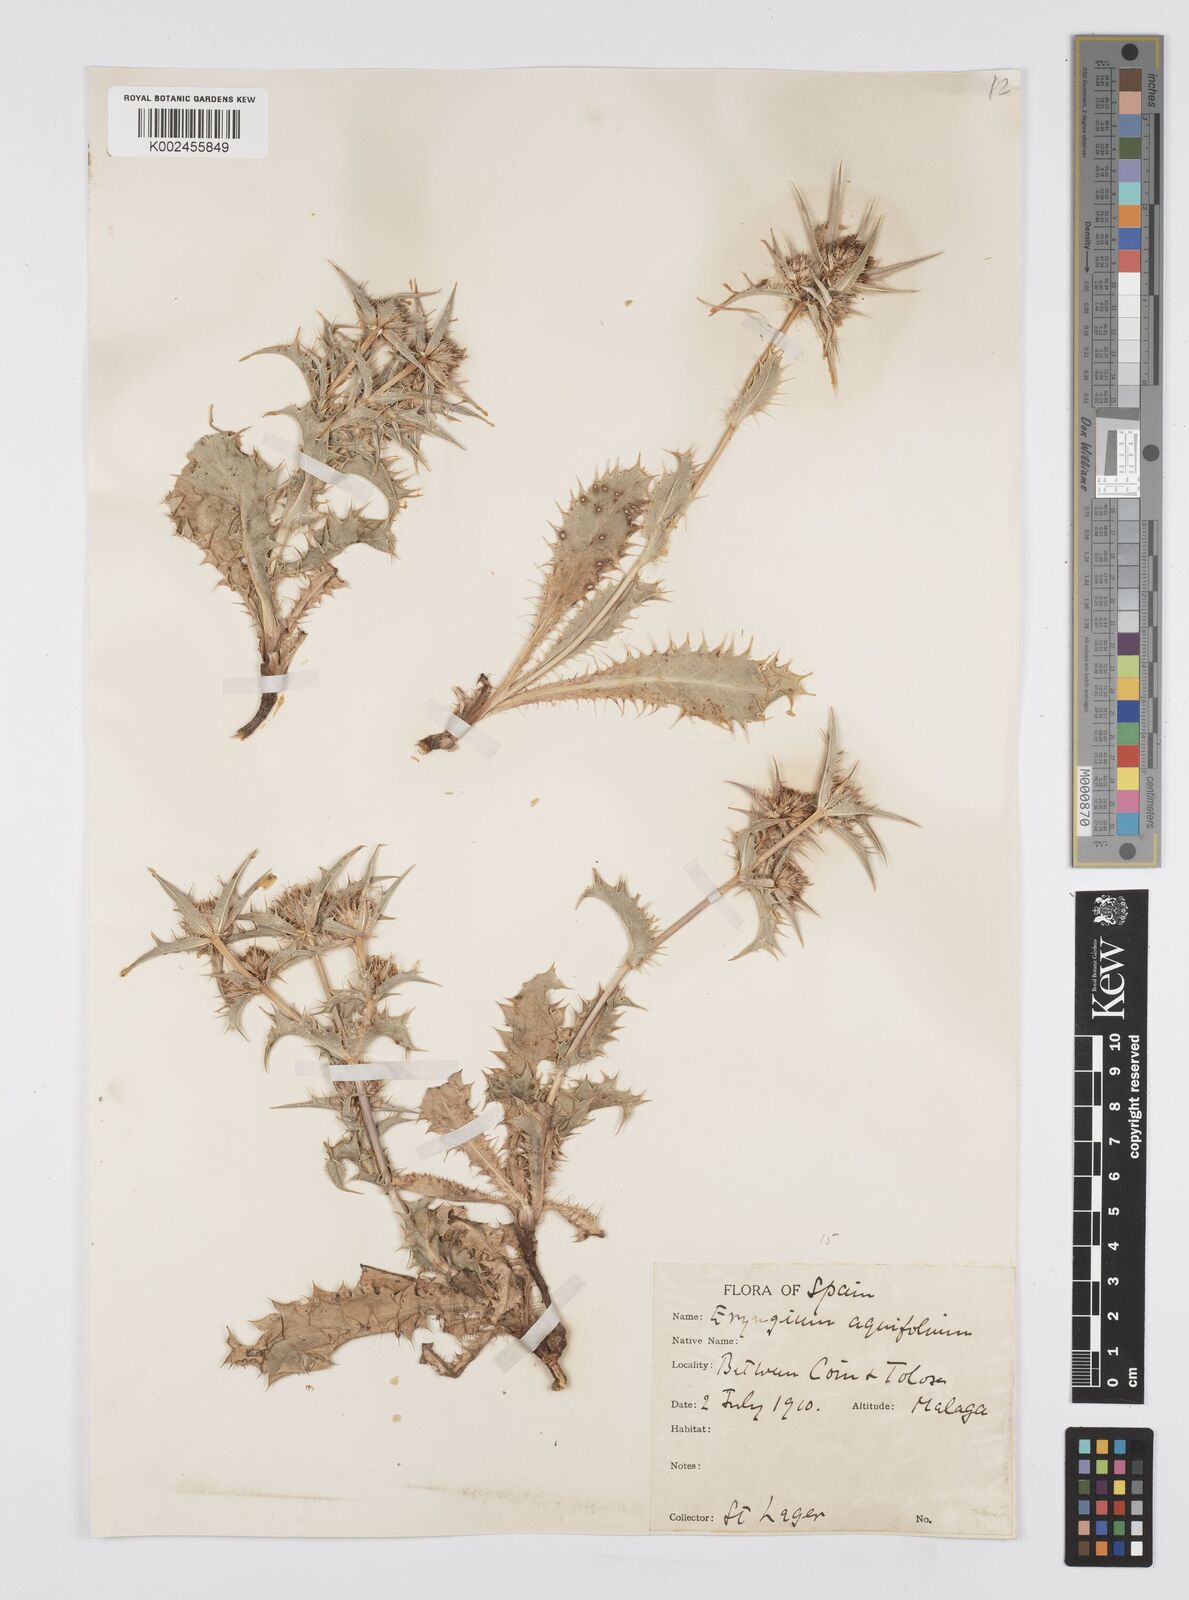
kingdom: Plantae
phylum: Tracheophyta
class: Magnoliopsida
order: Apiales
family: Apiaceae
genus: Eryngium
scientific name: Eryngium aquifolium
